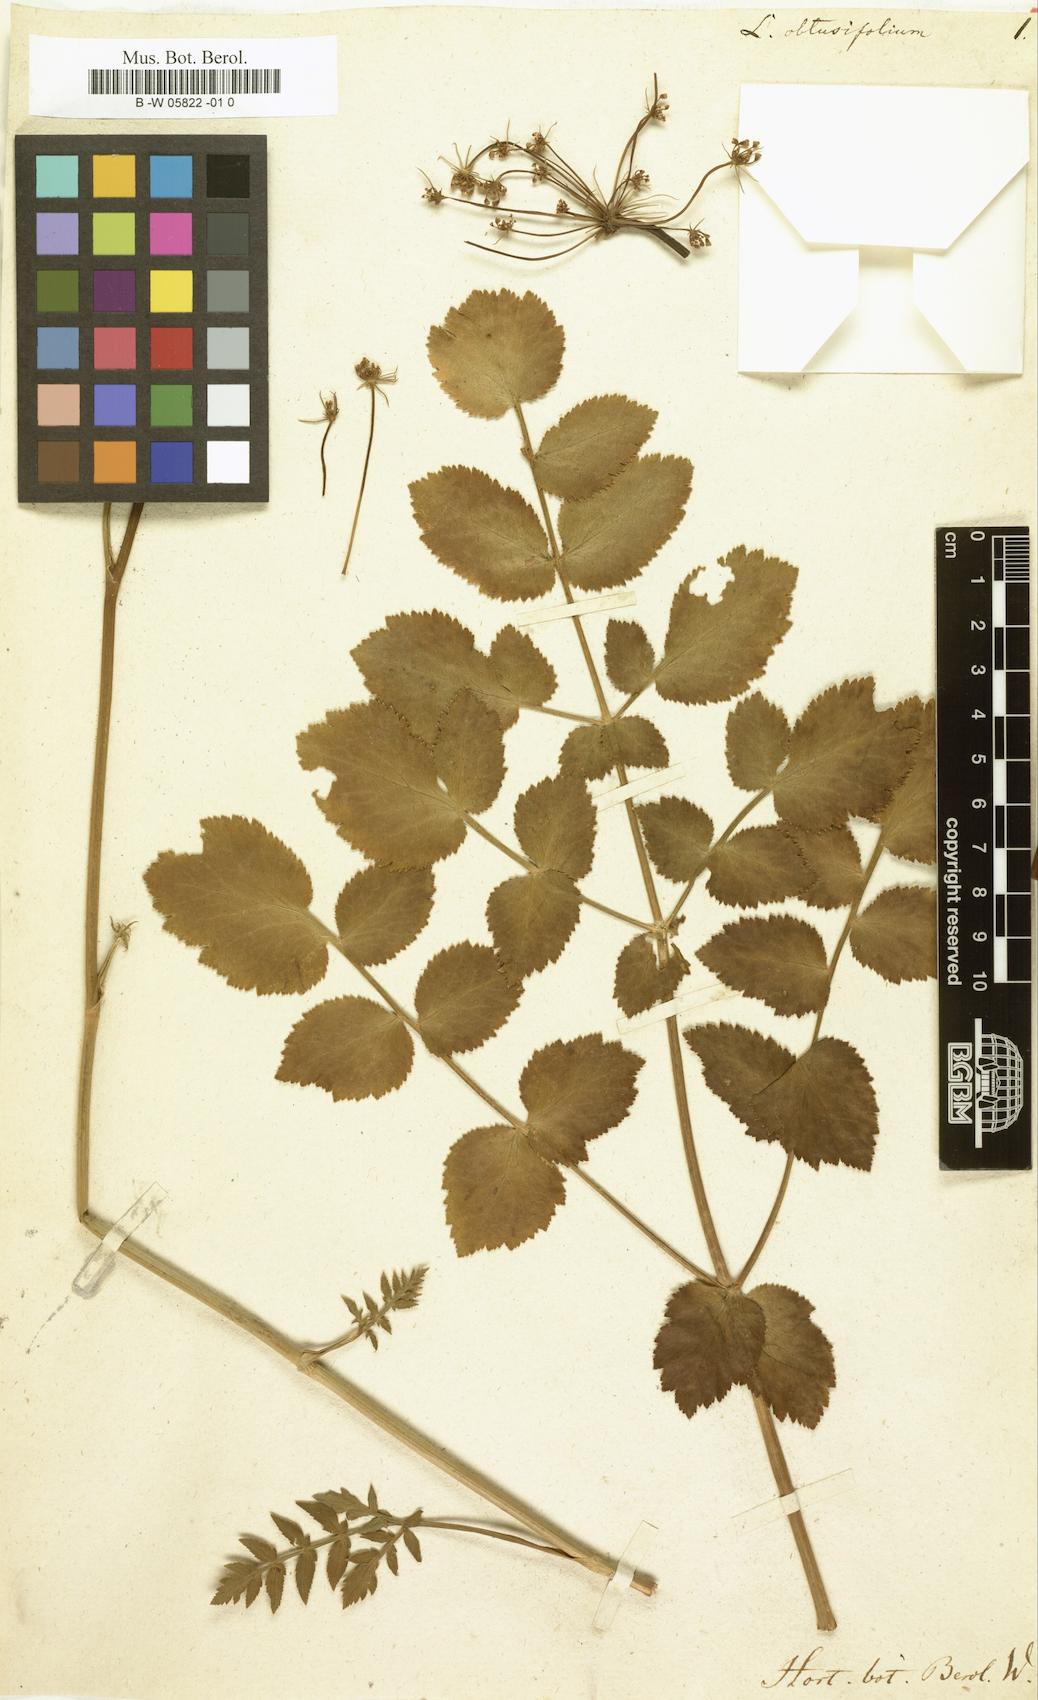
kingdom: Plantae
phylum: Tracheophyta
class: Magnoliopsida
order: Apiales
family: Apiaceae
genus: Ligusticum
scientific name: Ligusticum obtusifolium
